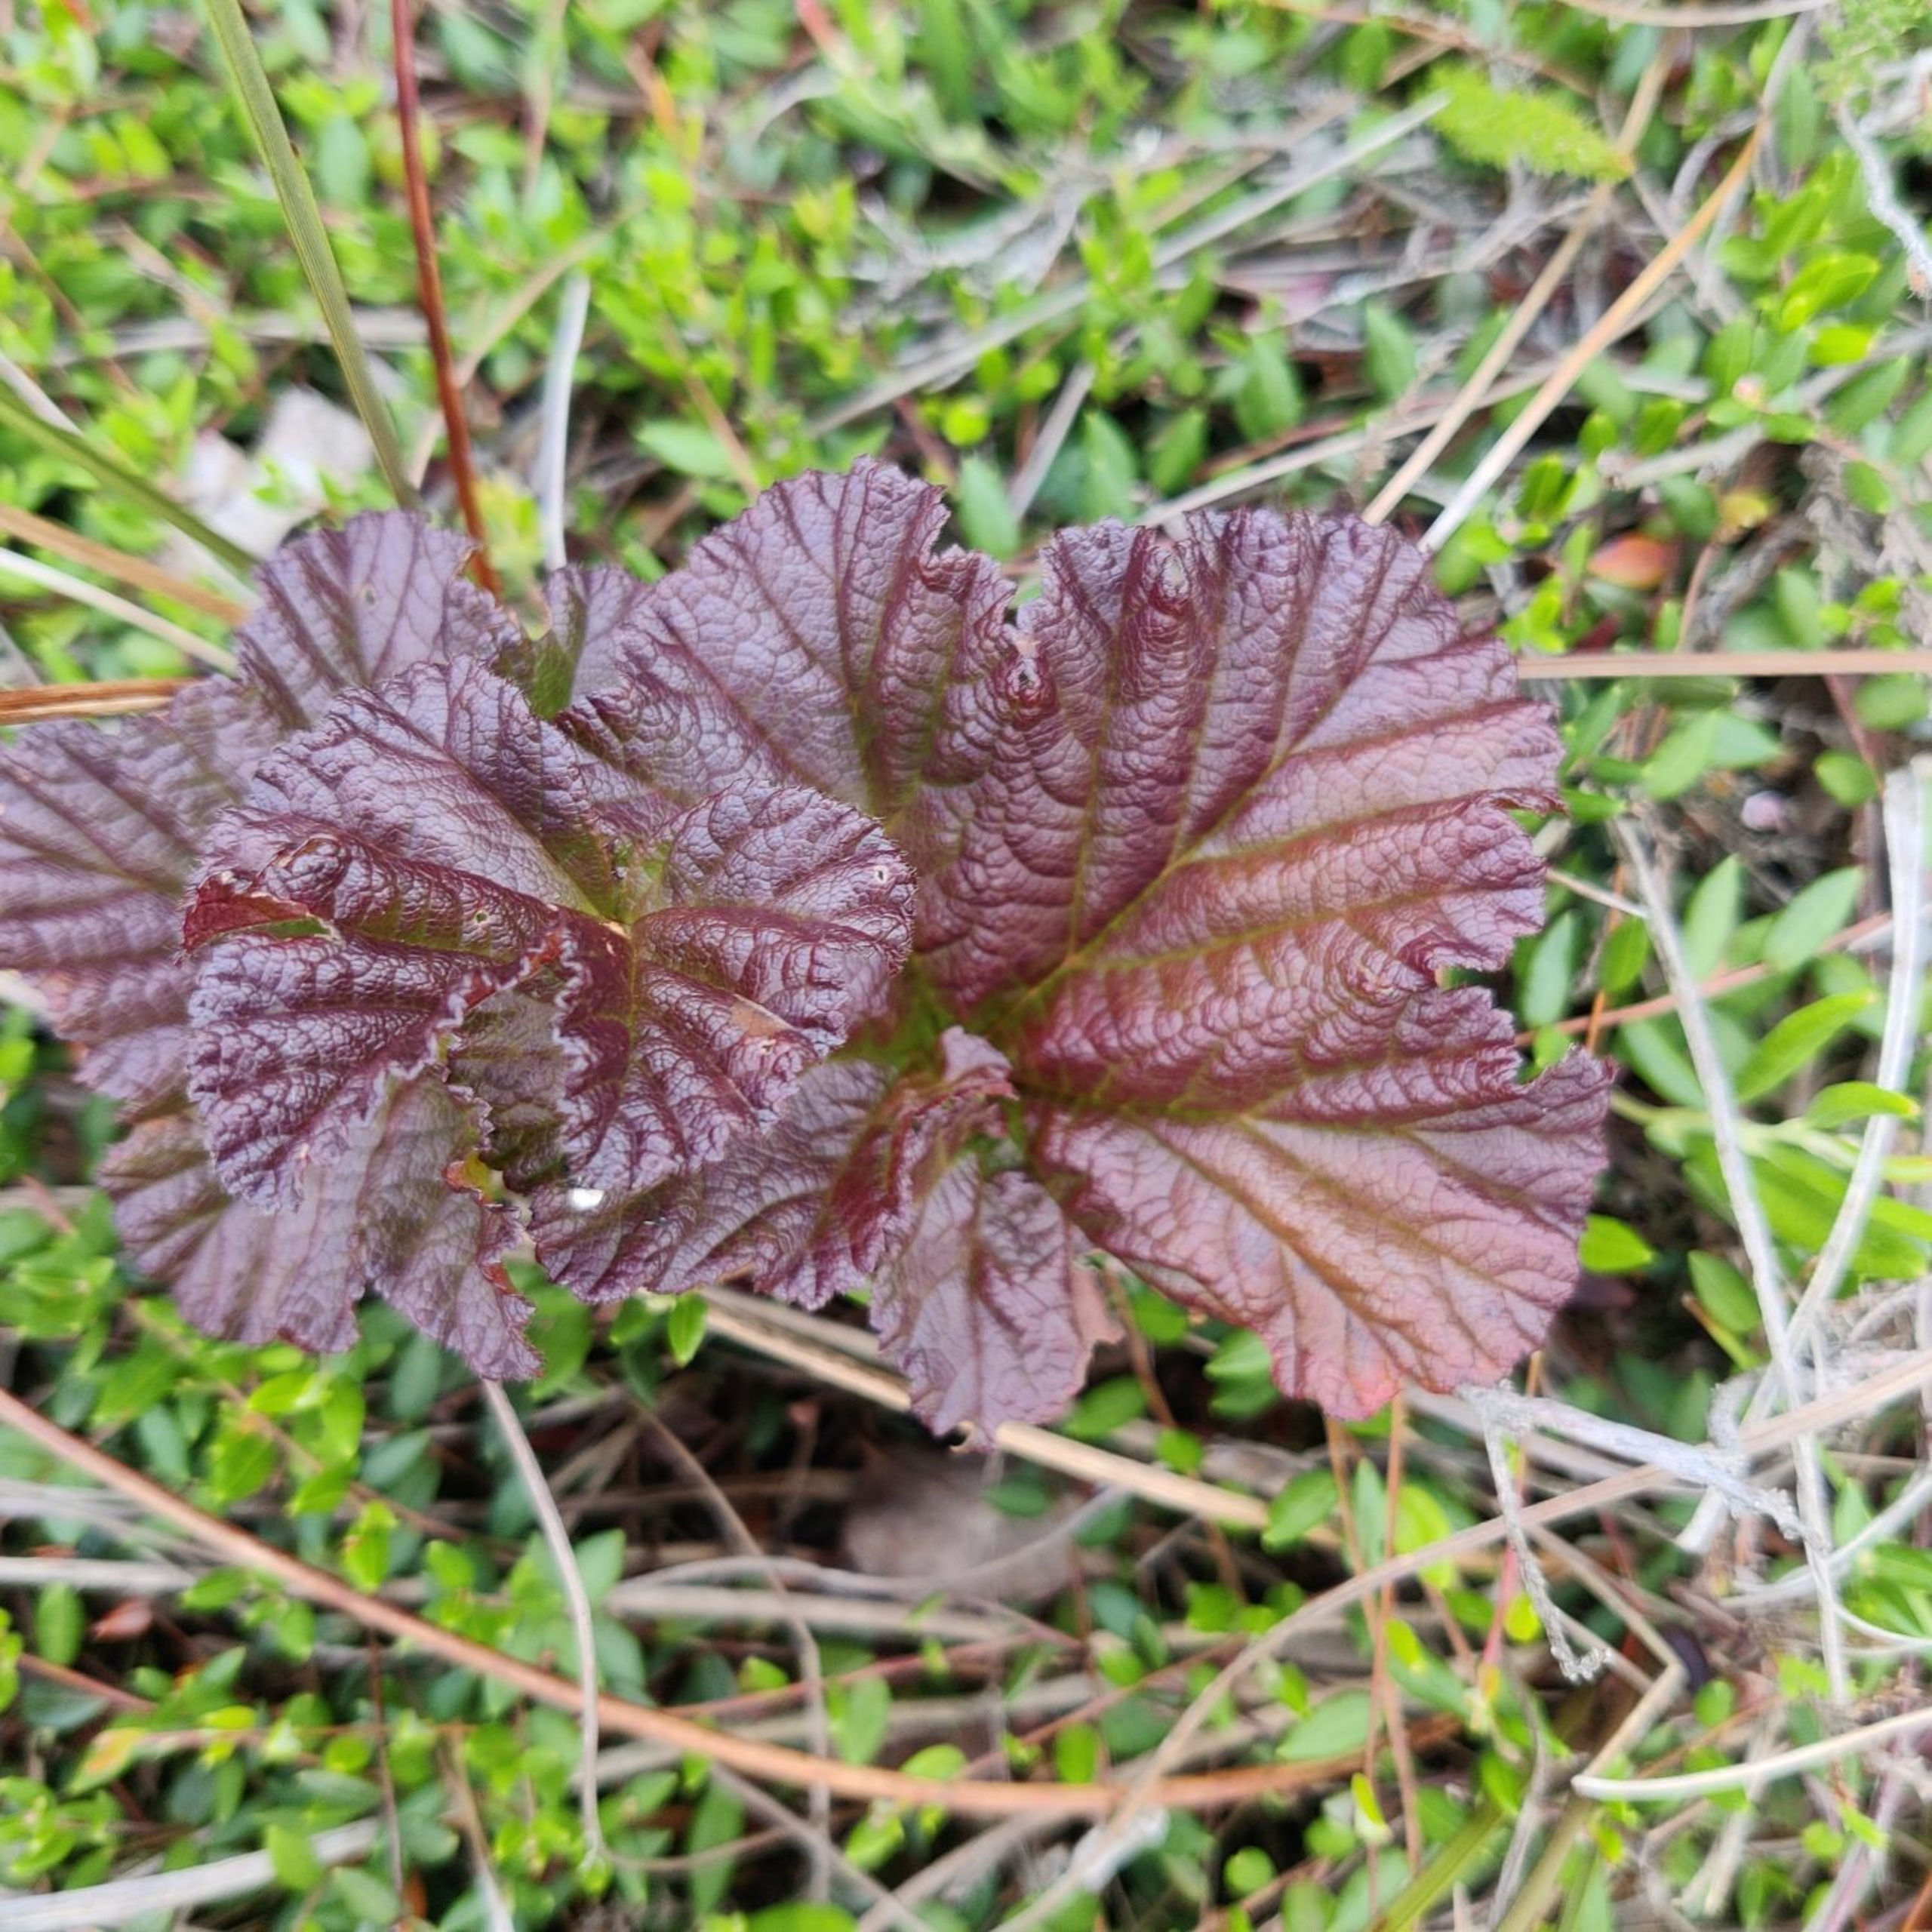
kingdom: Plantae
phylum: Tracheophyta
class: Magnoliopsida
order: Rosales
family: Rosaceae
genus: Rubus
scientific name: Rubus chamaemorus
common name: Multebær
